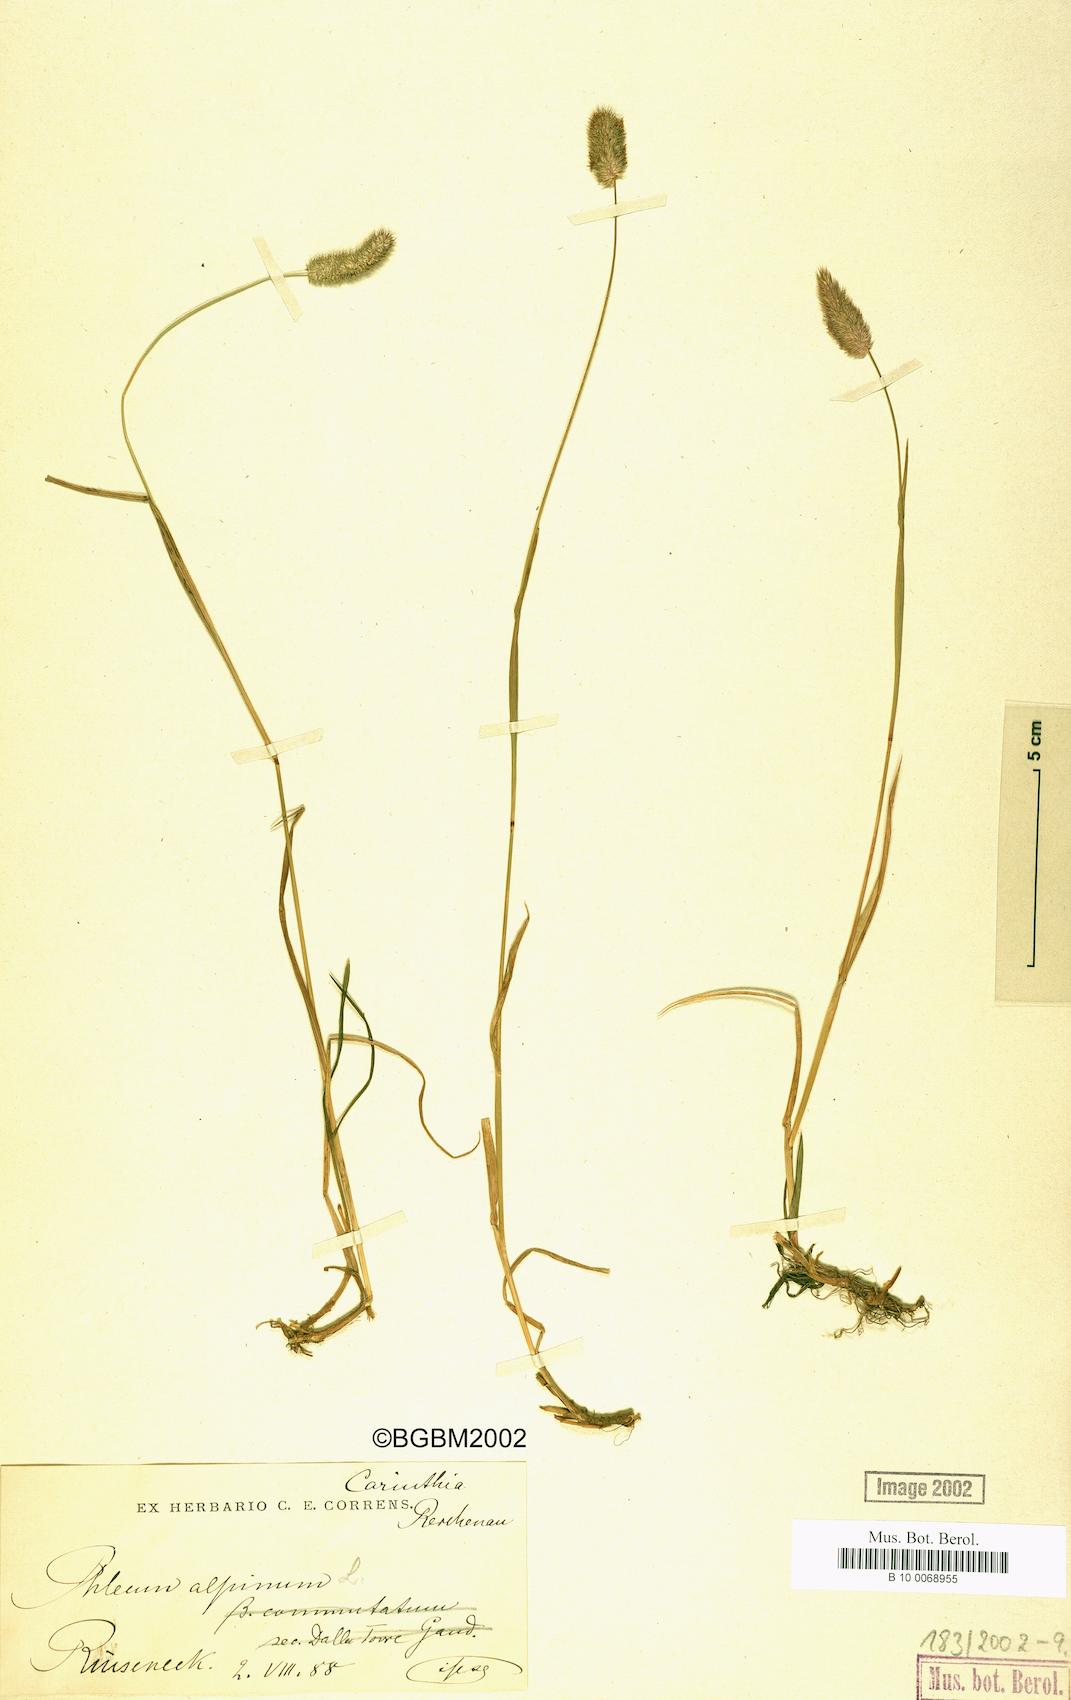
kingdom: Plantae
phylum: Tracheophyta
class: Liliopsida
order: Poales
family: Poaceae
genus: Phleum
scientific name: Phleum alpinum
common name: Alpine cat's-tail
